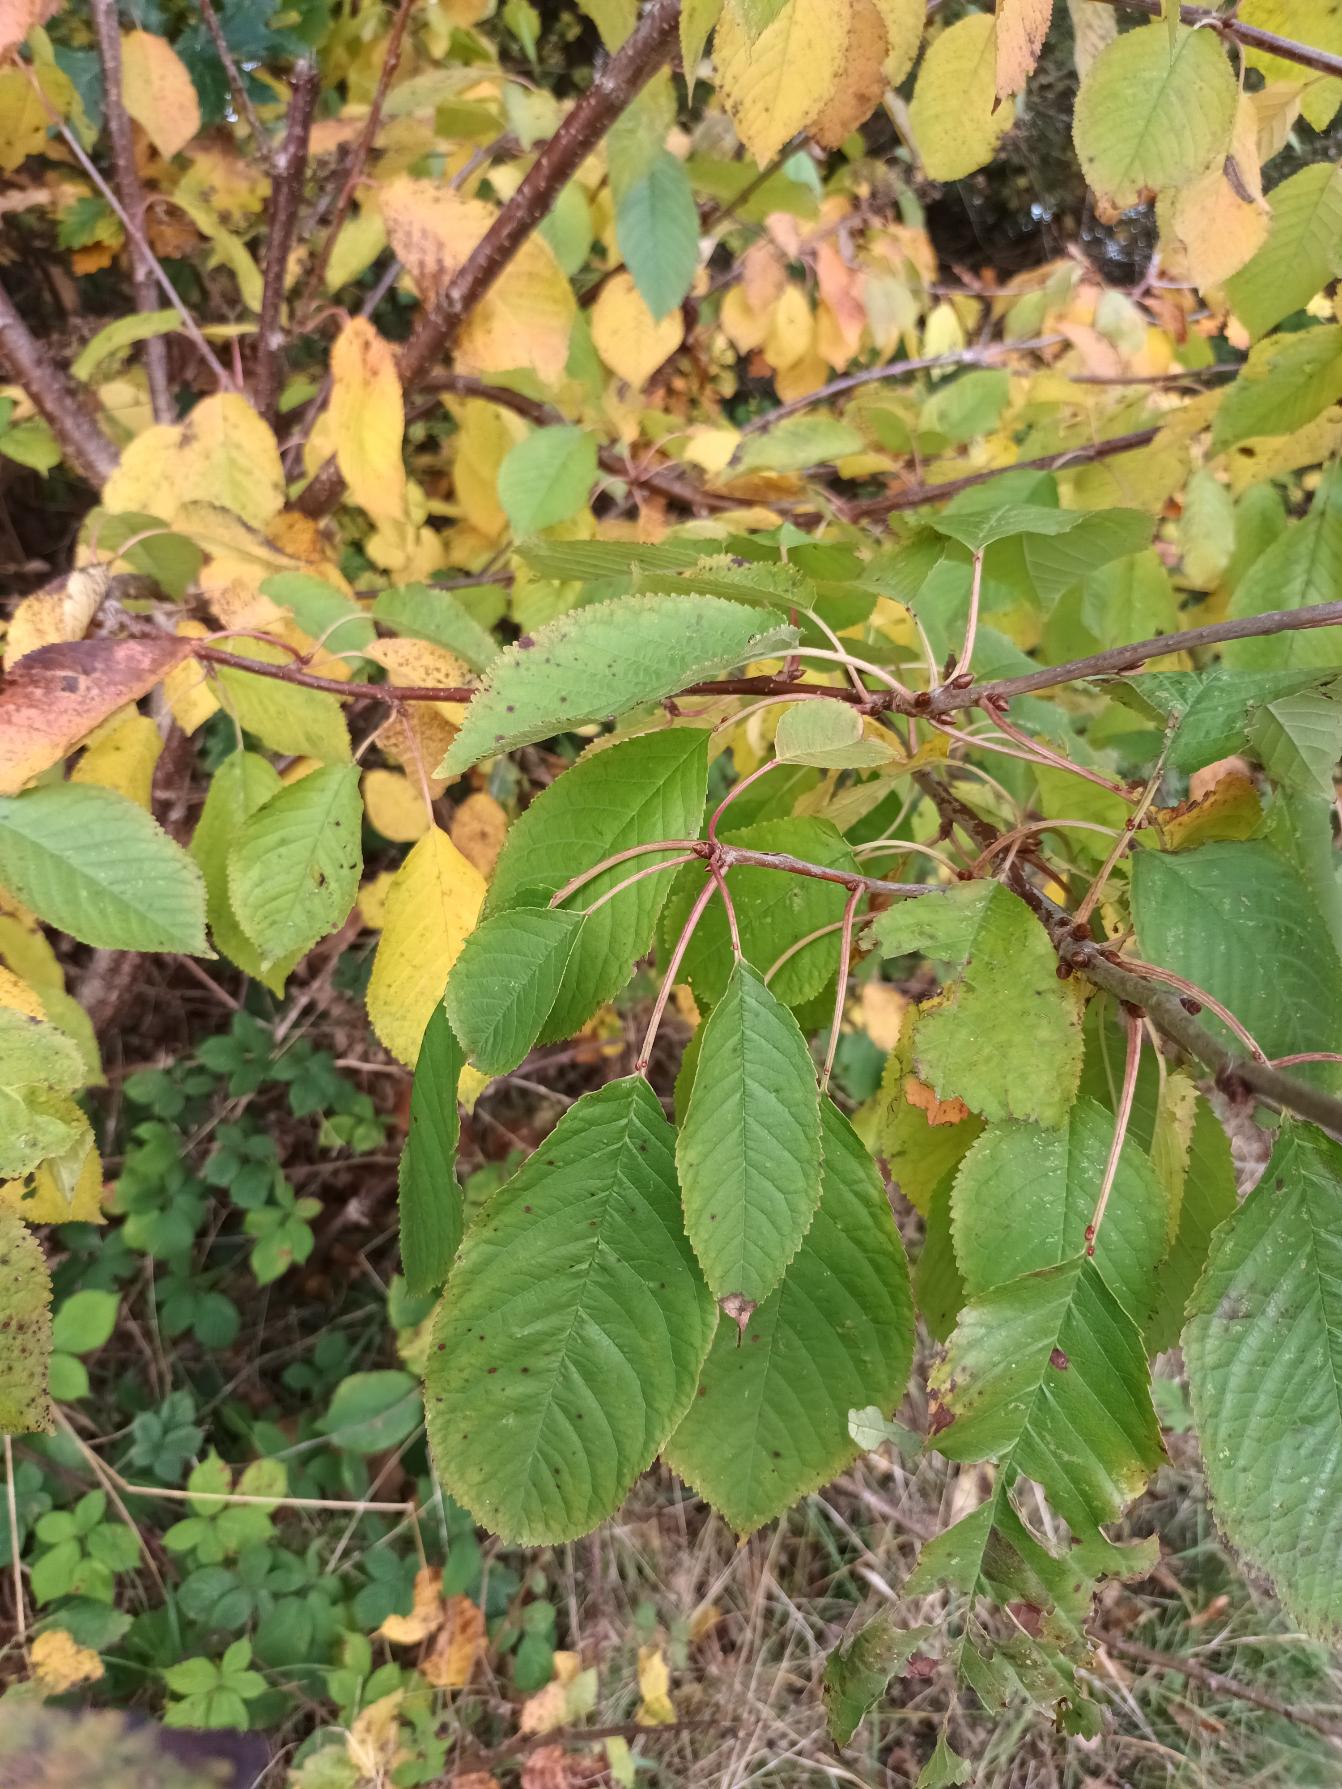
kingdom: Plantae
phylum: Tracheophyta
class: Magnoliopsida
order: Rosales
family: Rosaceae
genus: Prunus
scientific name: Prunus avium
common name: Fugle-kirsebær
